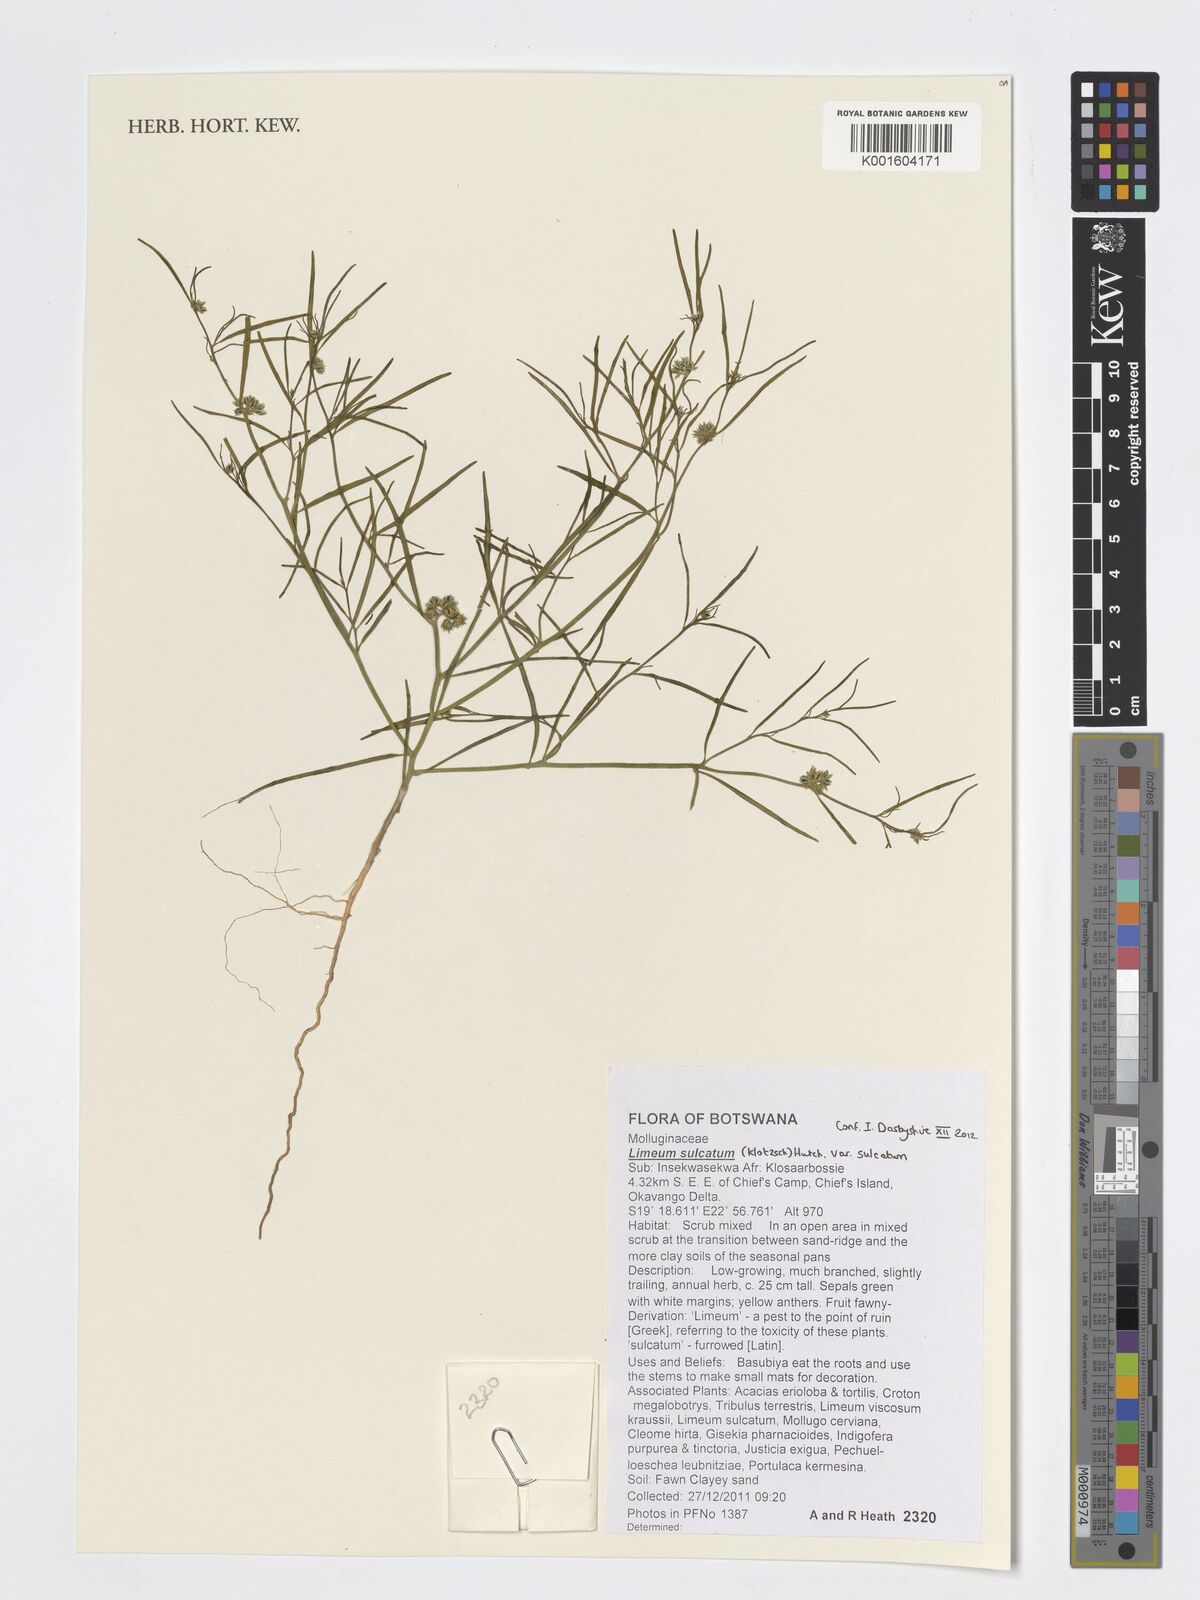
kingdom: Plantae
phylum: Tracheophyta
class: Magnoliopsida
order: Caryophyllales
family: Limeaceae
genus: Limeum
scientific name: Limeum sulcatum
